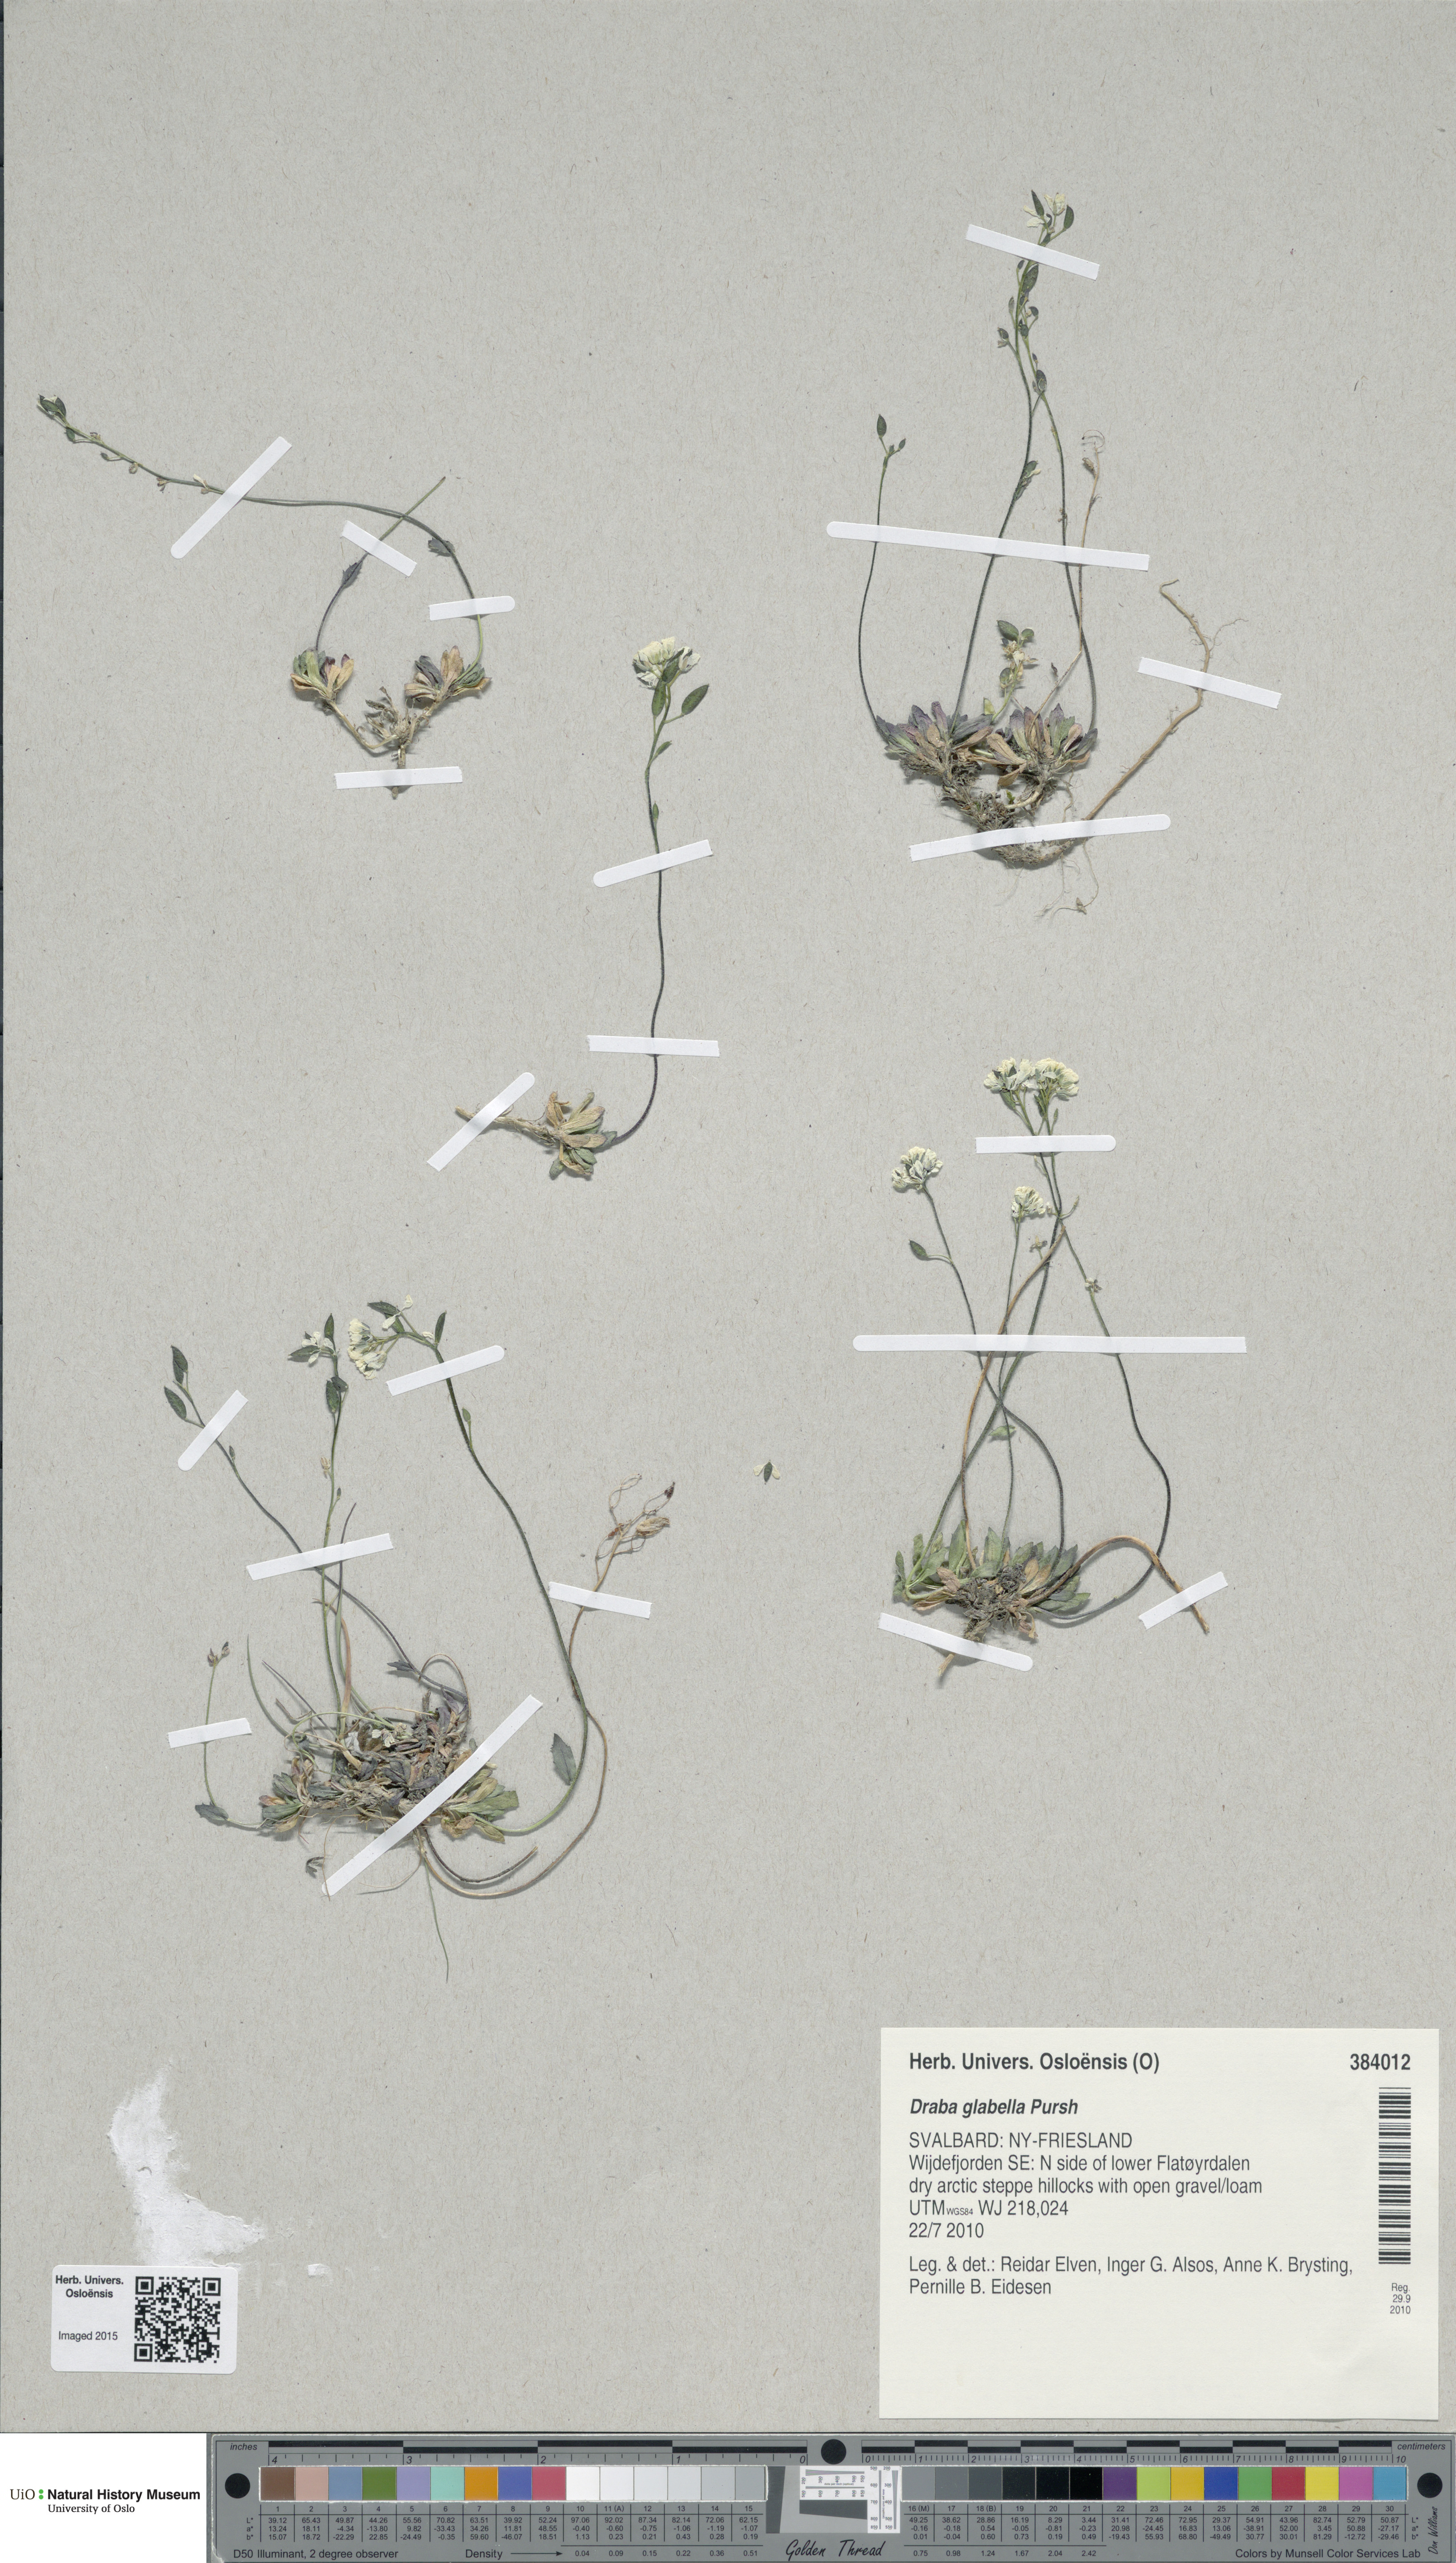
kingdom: Plantae
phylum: Tracheophyta
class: Magnoliopsida
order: Brassicales
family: Brassicaceae
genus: Draba
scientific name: Draba glabella
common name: Glaucous draba
